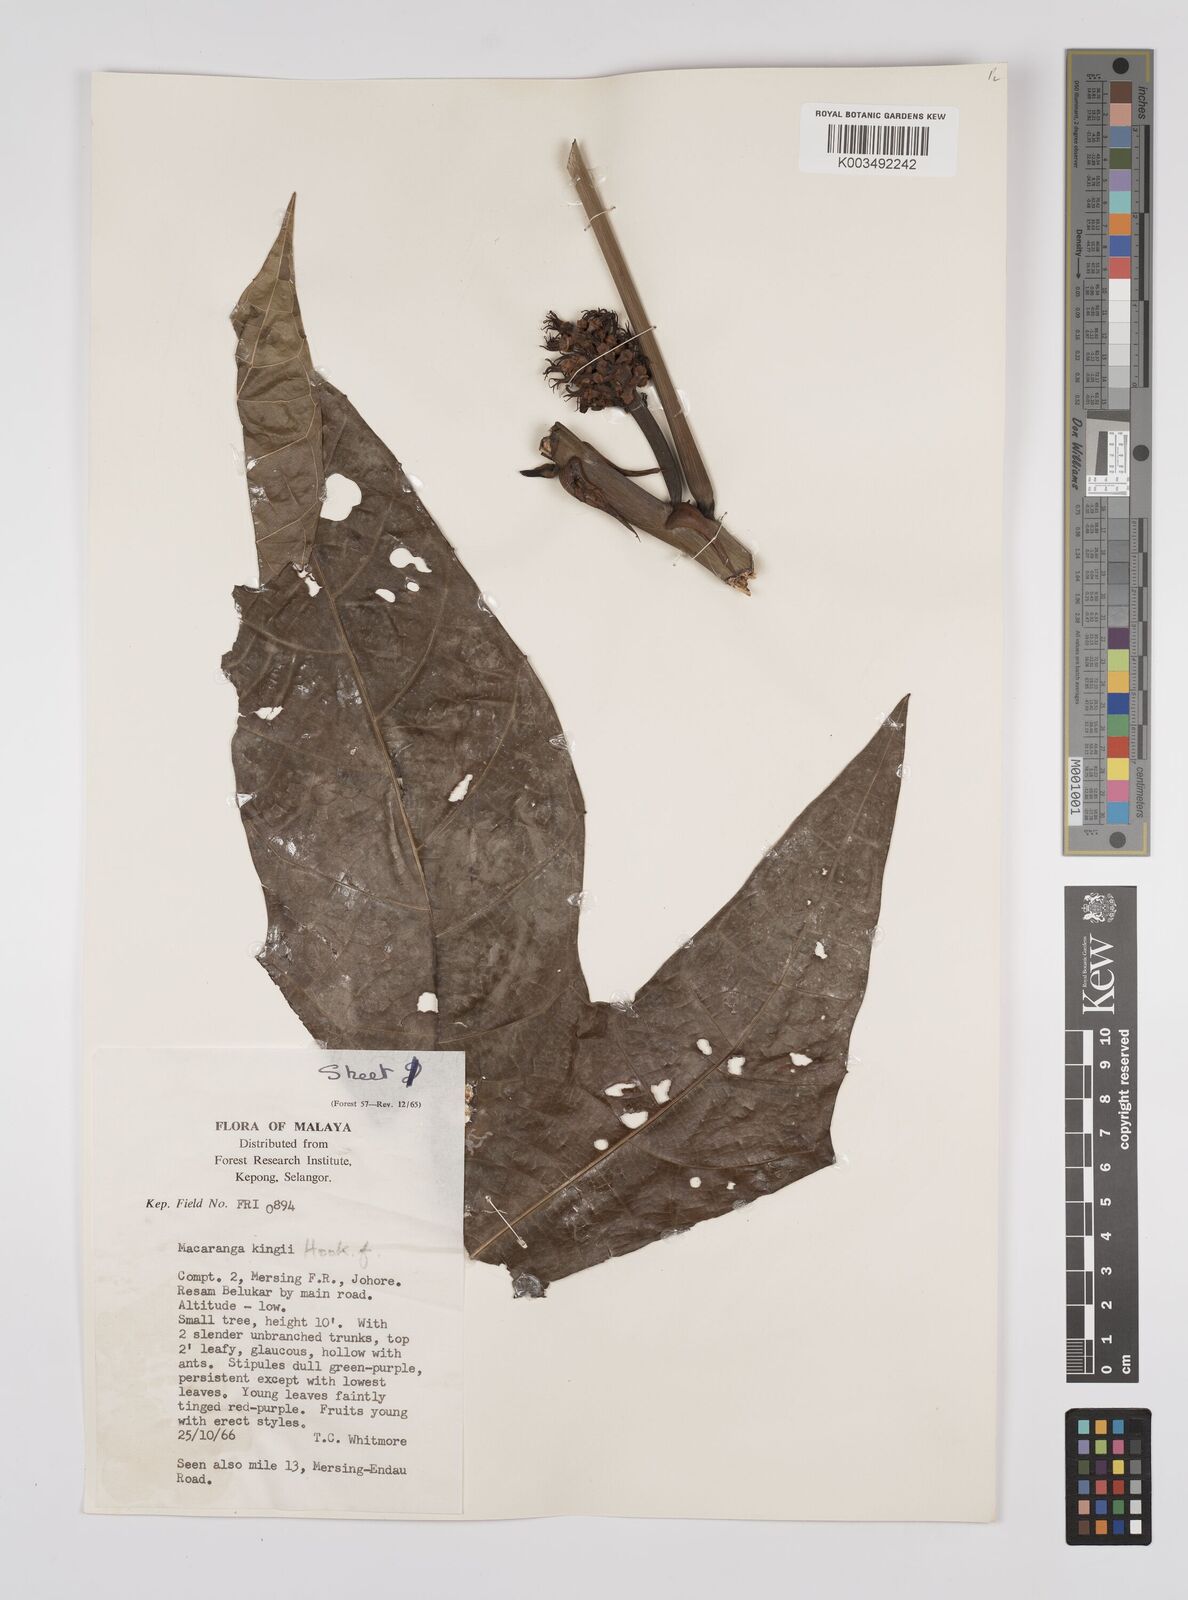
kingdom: Plantae
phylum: Tracheophyta
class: Magnoliopsida
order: Malpighiales
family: Euphorbiaceae
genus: Macaranga
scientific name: Macaranga kingii
